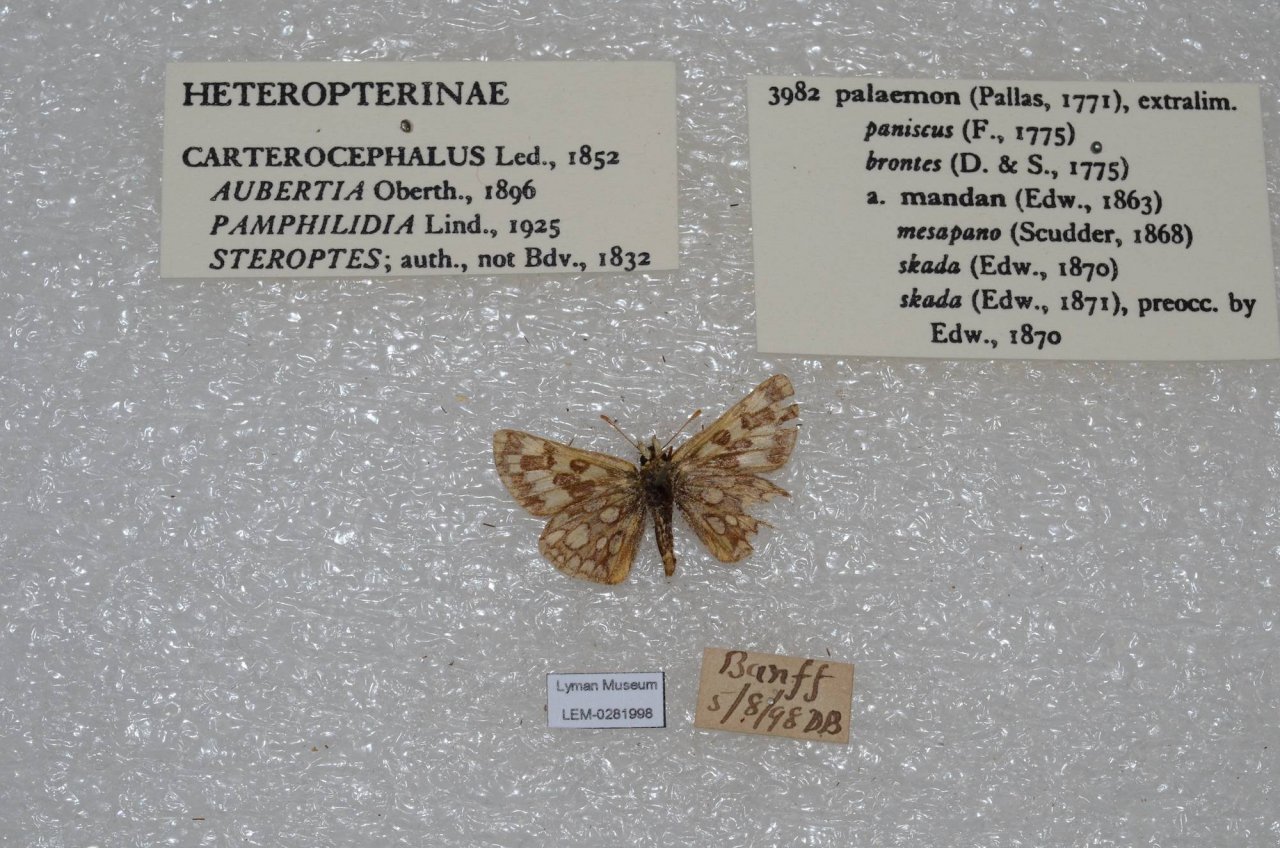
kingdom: Animalia
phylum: Arthropoda
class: Insecta
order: Lepidoptera
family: Hesperiidae
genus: Carterocephalus
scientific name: Carterocephalus palaemon
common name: Chequered Skipper
